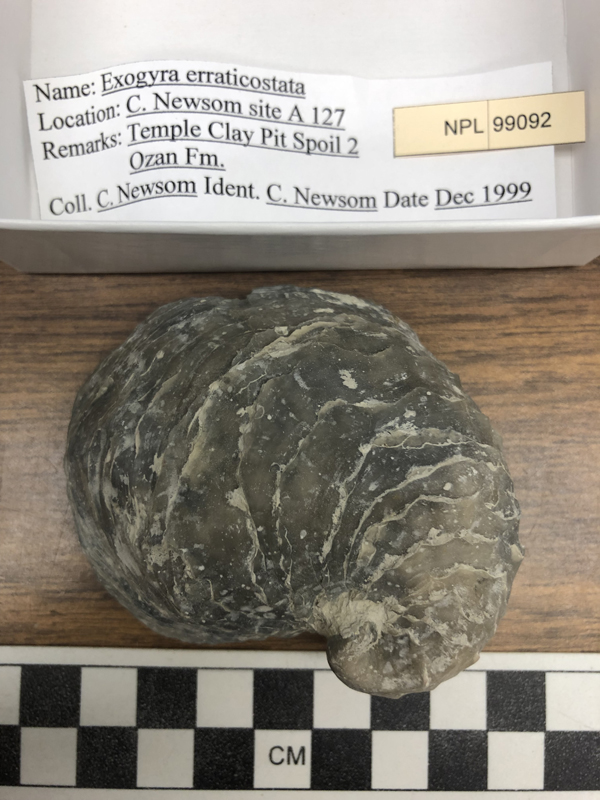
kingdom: Animalia
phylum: Mollusca
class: Bivalvia
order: Ostreida
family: Gryphaeidae
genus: Exogyra
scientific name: Exogyra
